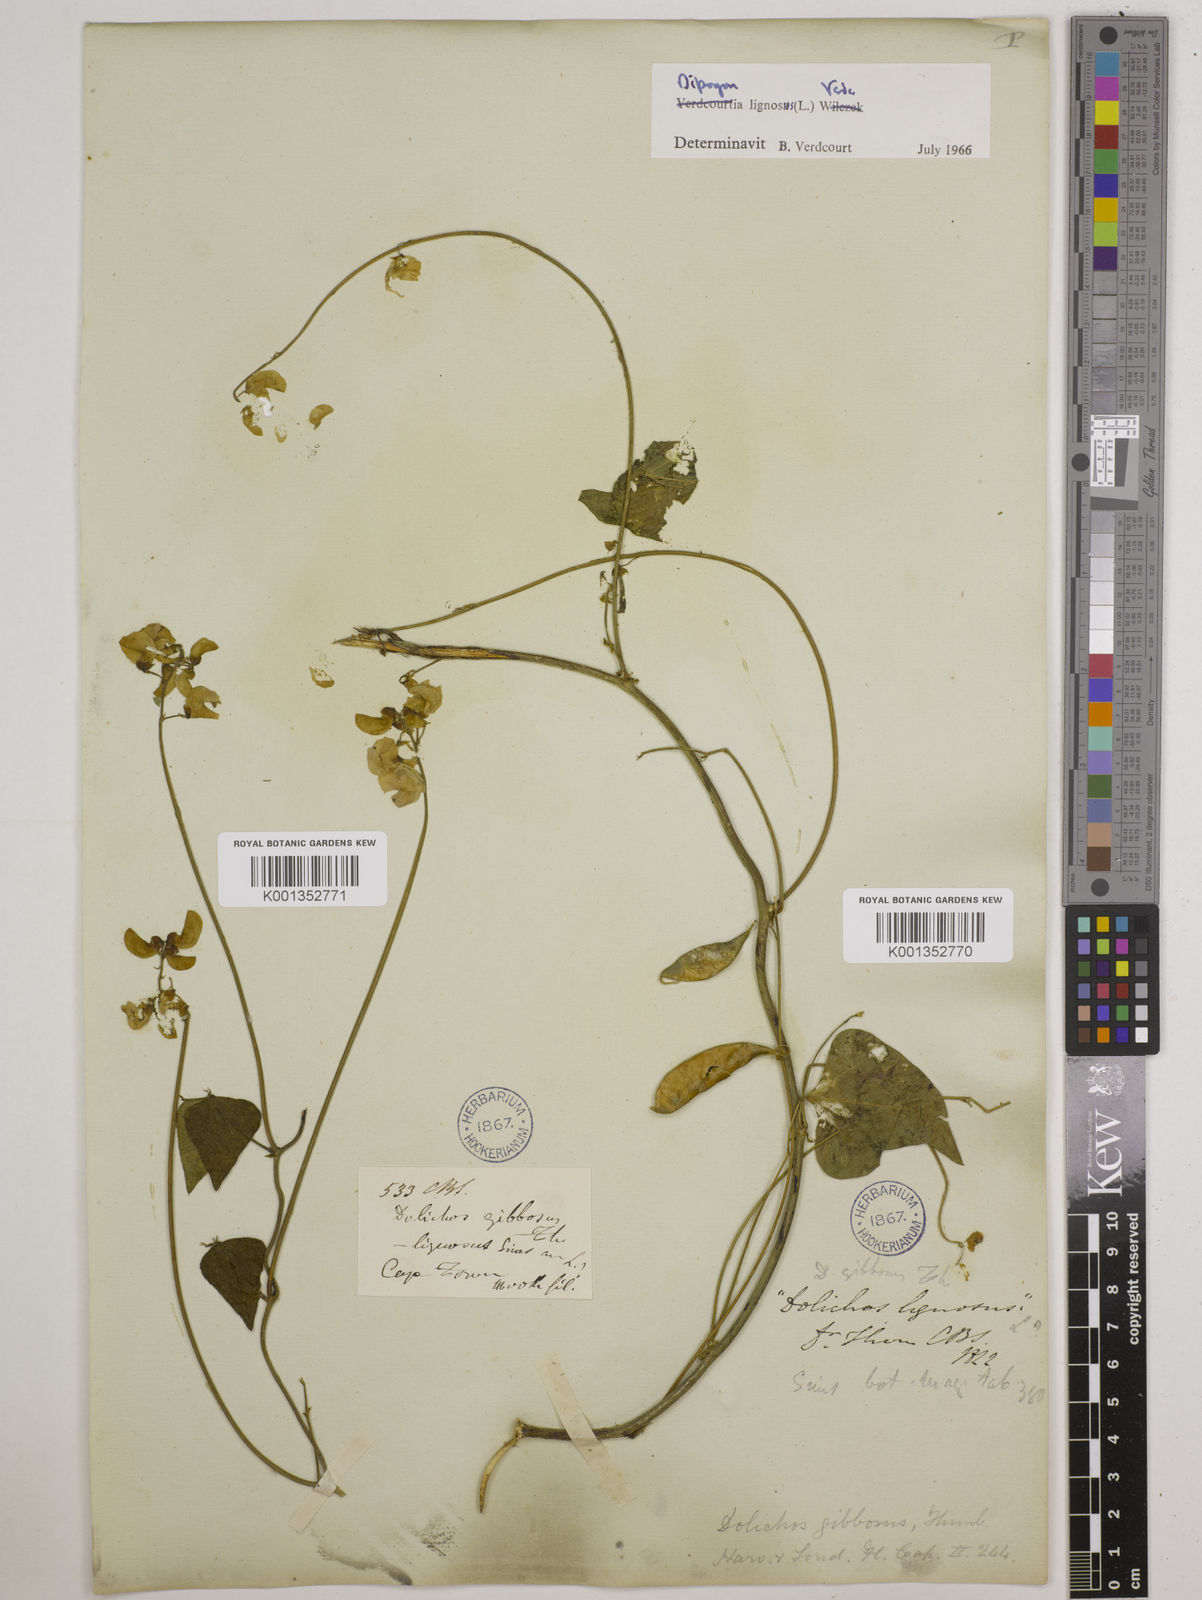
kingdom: Plantae
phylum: Tracheophyta
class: Magnoliopsida
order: Fabales
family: Fabaceae
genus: Dipogon
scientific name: Dipogon lignosus
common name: Okie bean
